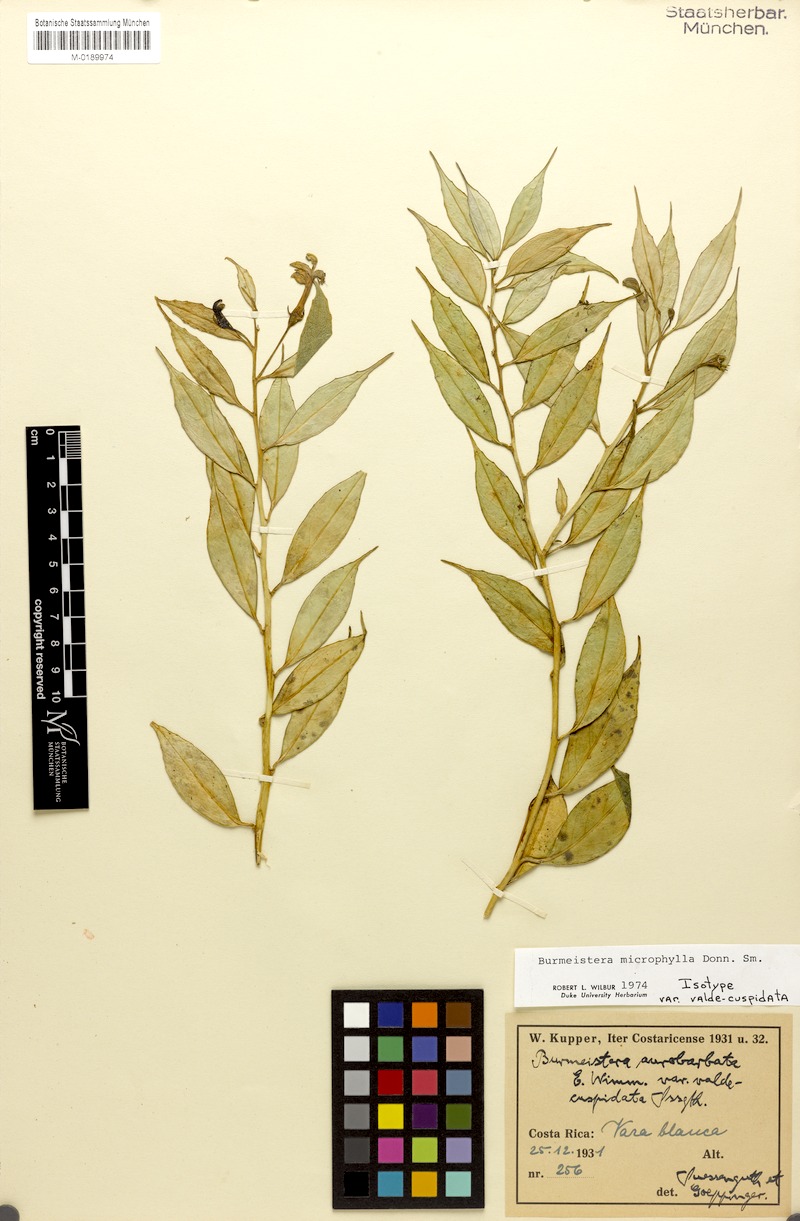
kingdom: Plantae
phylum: Tracheophyta
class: Magnoliopsida
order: Asterales
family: Campanulaceae
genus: Burmeistera
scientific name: Burmeistera microphylla
